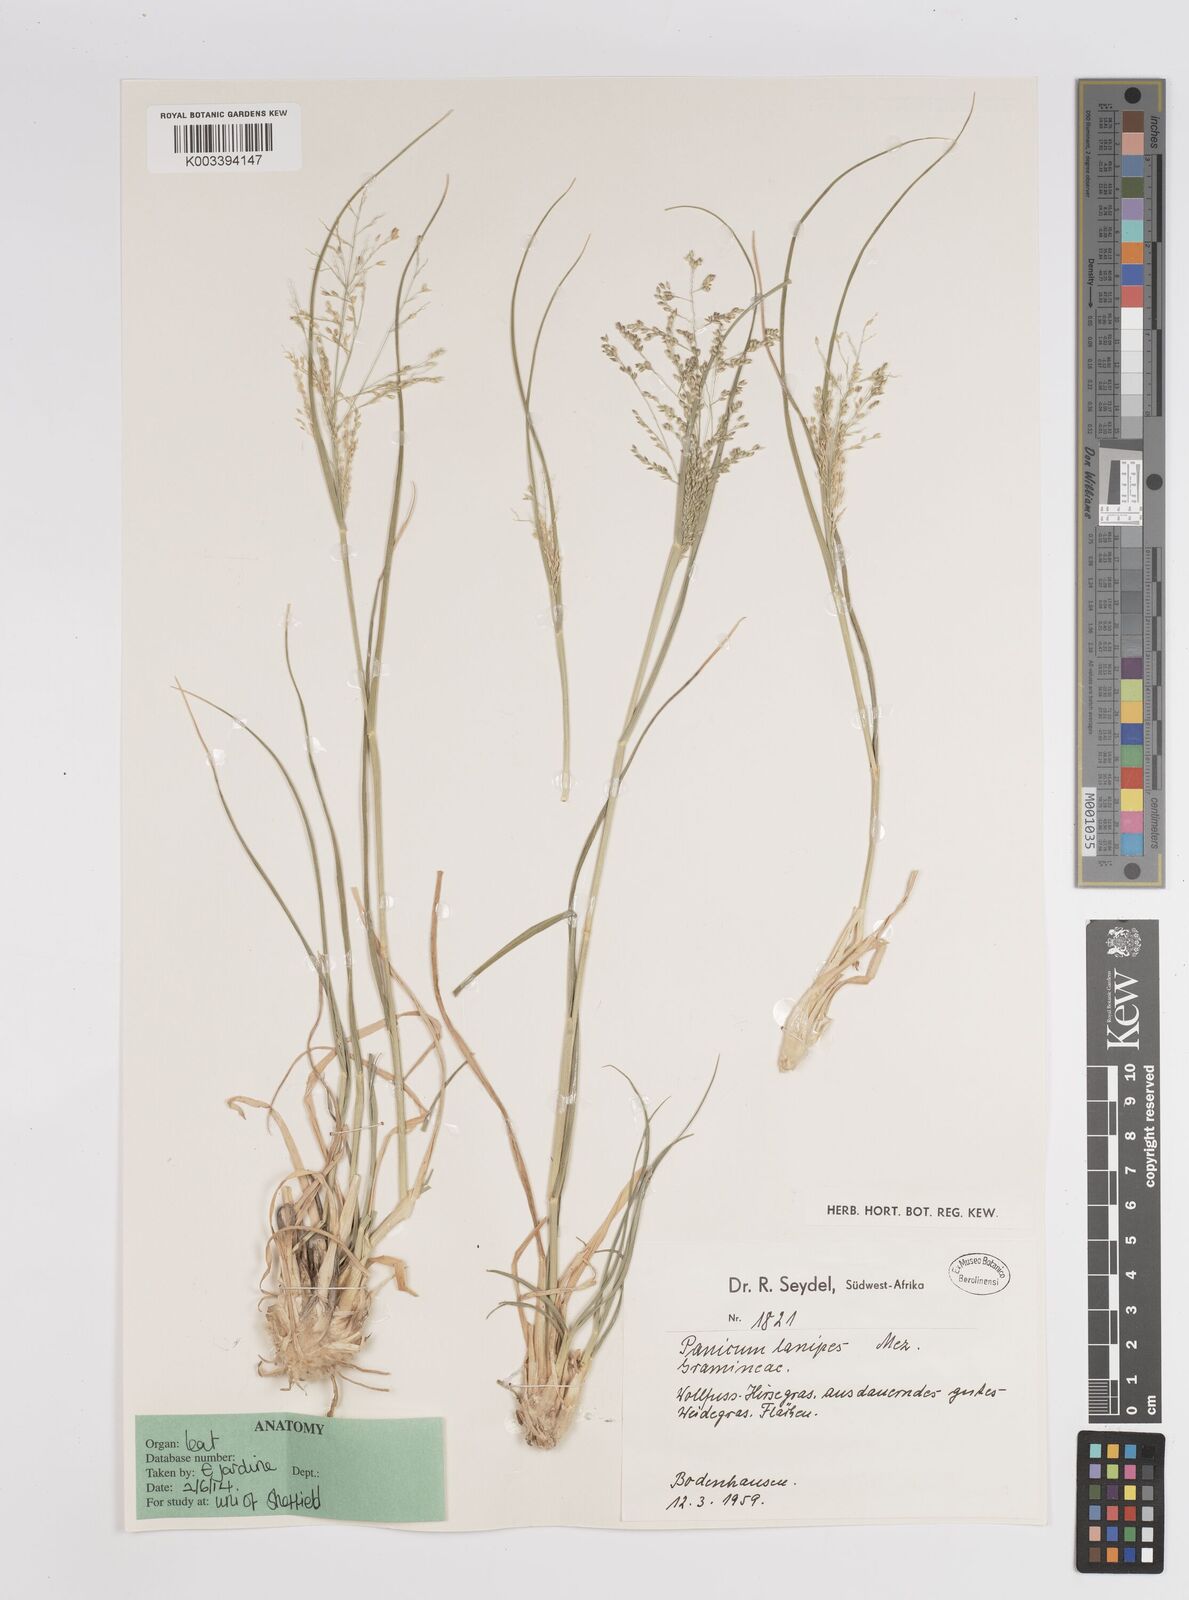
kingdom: Plantae
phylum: Tracheophyta
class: Liliopsida
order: Poales
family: Poaceae
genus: Panicum
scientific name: Panicum lanipes
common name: Wolvoet panicum
